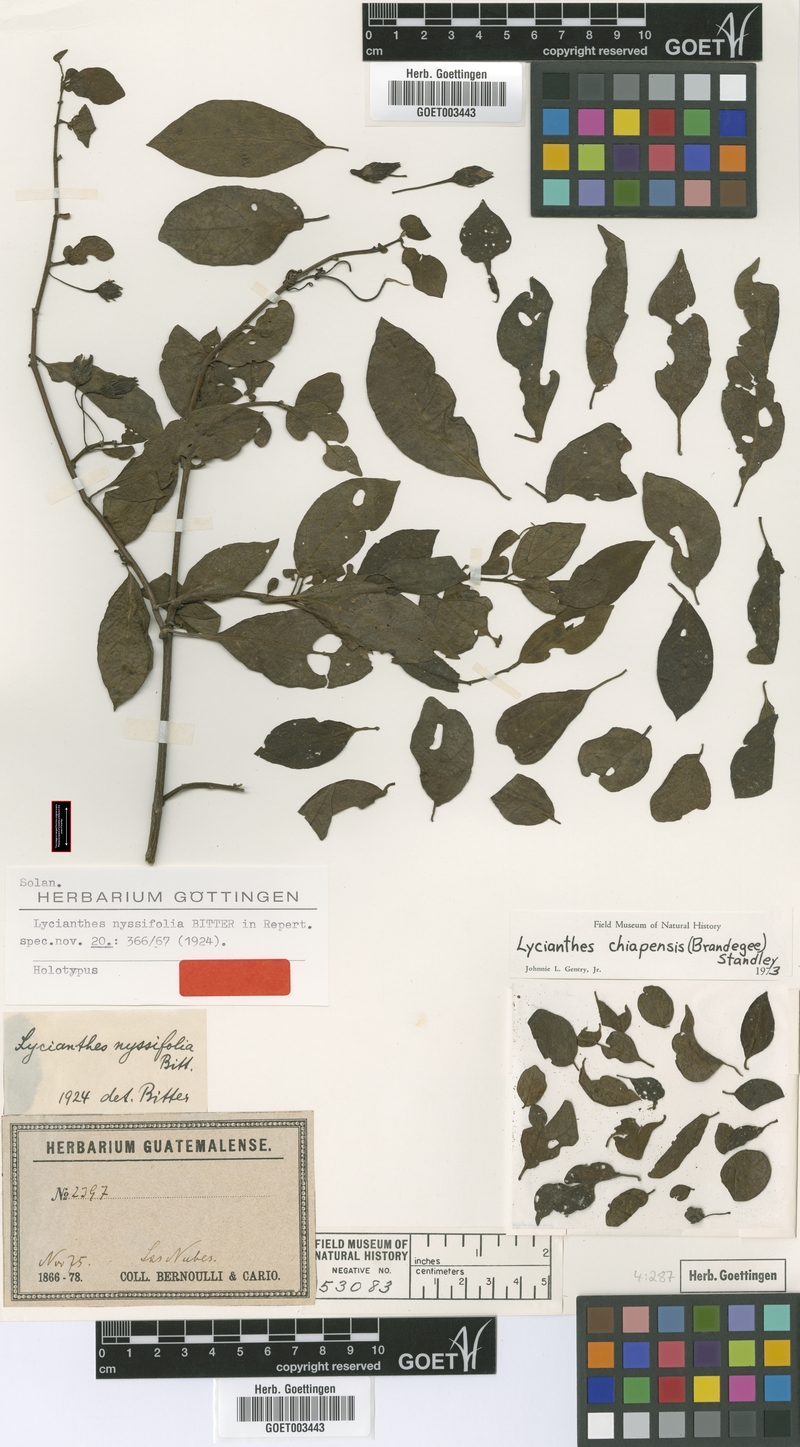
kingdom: Plantae
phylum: Tracheophyta
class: Magnoliopsida
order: Solanales
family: Solanaceae
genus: Lycianthes
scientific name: Lycianthes chiapensis
